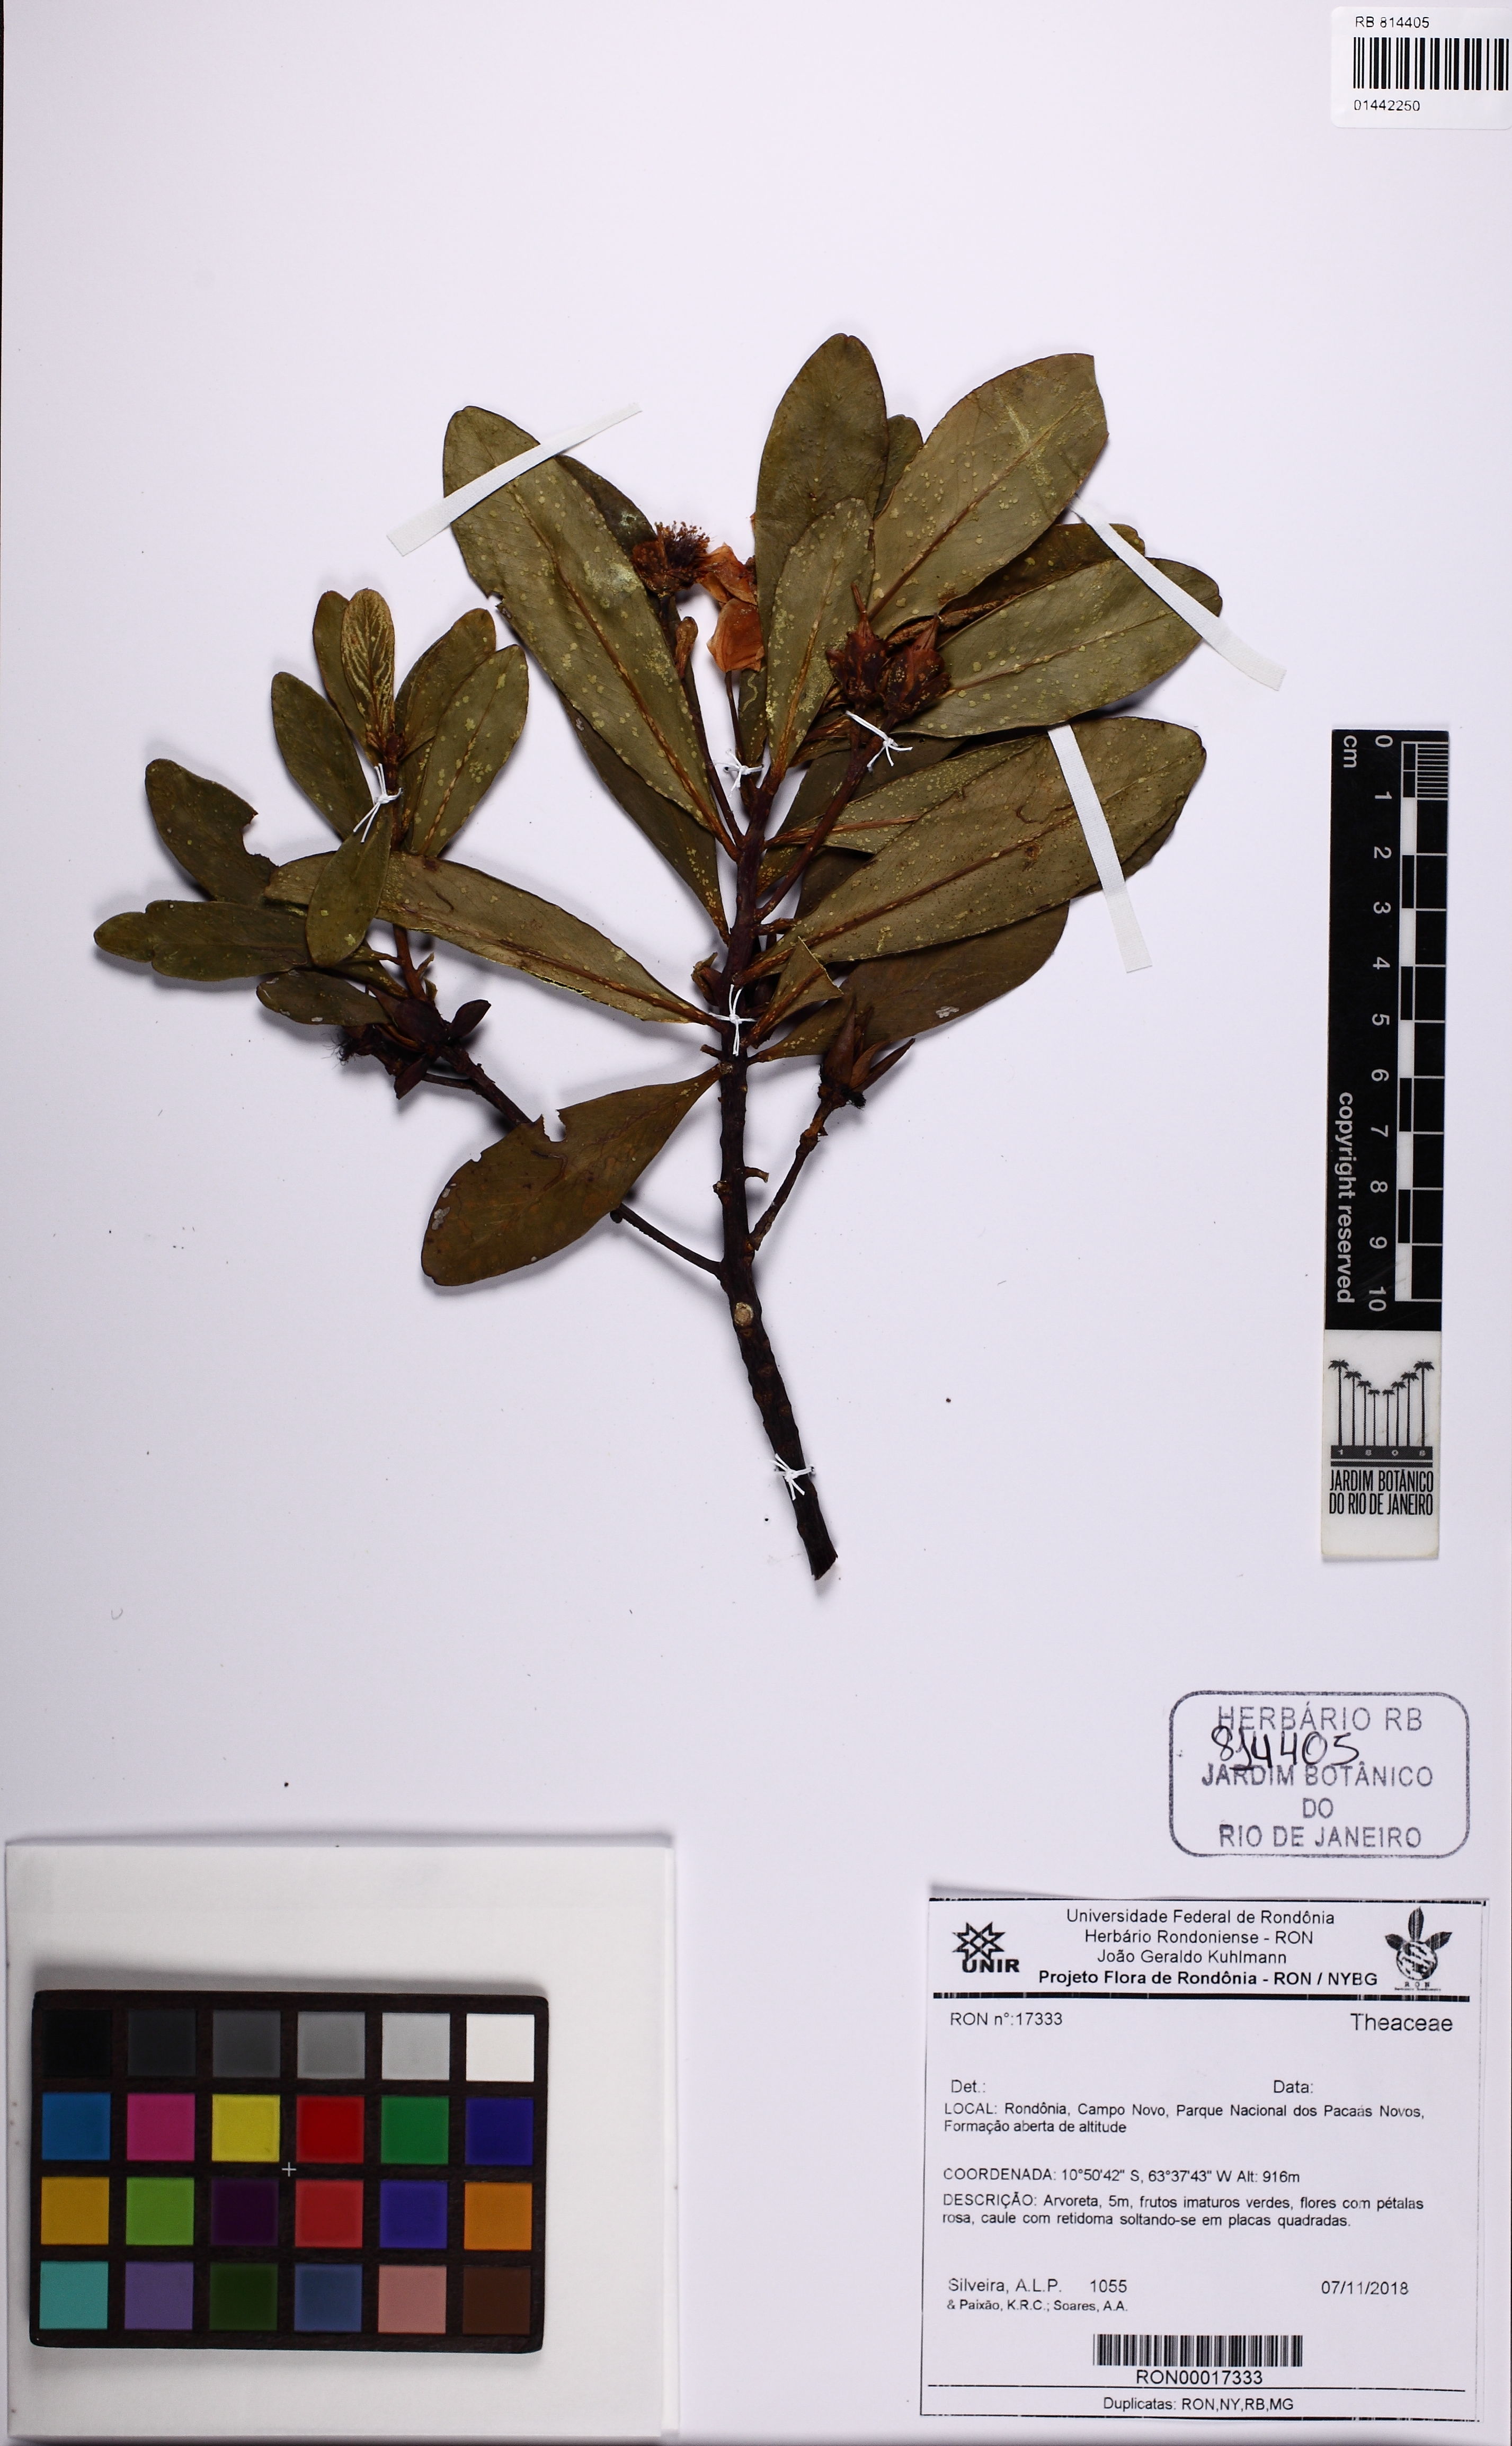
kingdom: Plantae
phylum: Tracheophyta
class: Magnoliopsida
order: Ericales
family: Theaceae
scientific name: Theaceae
